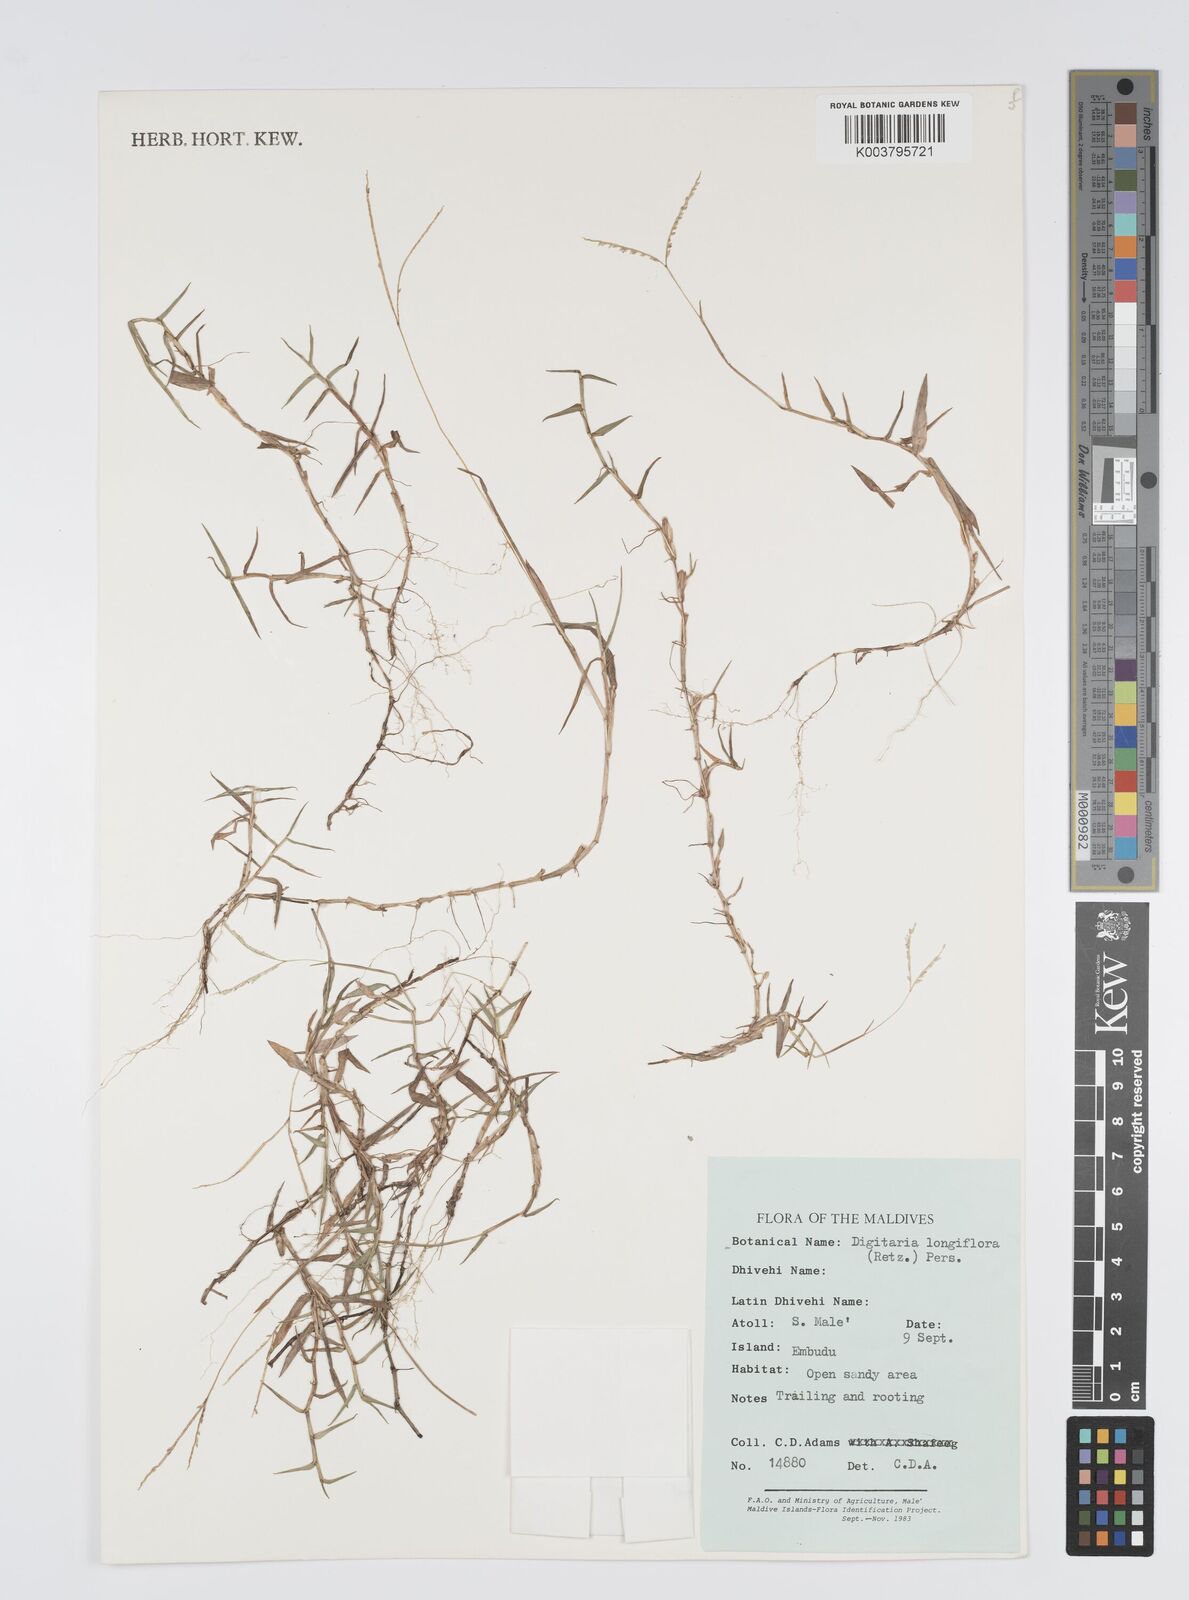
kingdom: Plantae
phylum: Tracheophyta
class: Liliopsida
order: Poales
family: Poaceae
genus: Digitaria
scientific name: Digitaria longiflora
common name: Wire crabgrass
